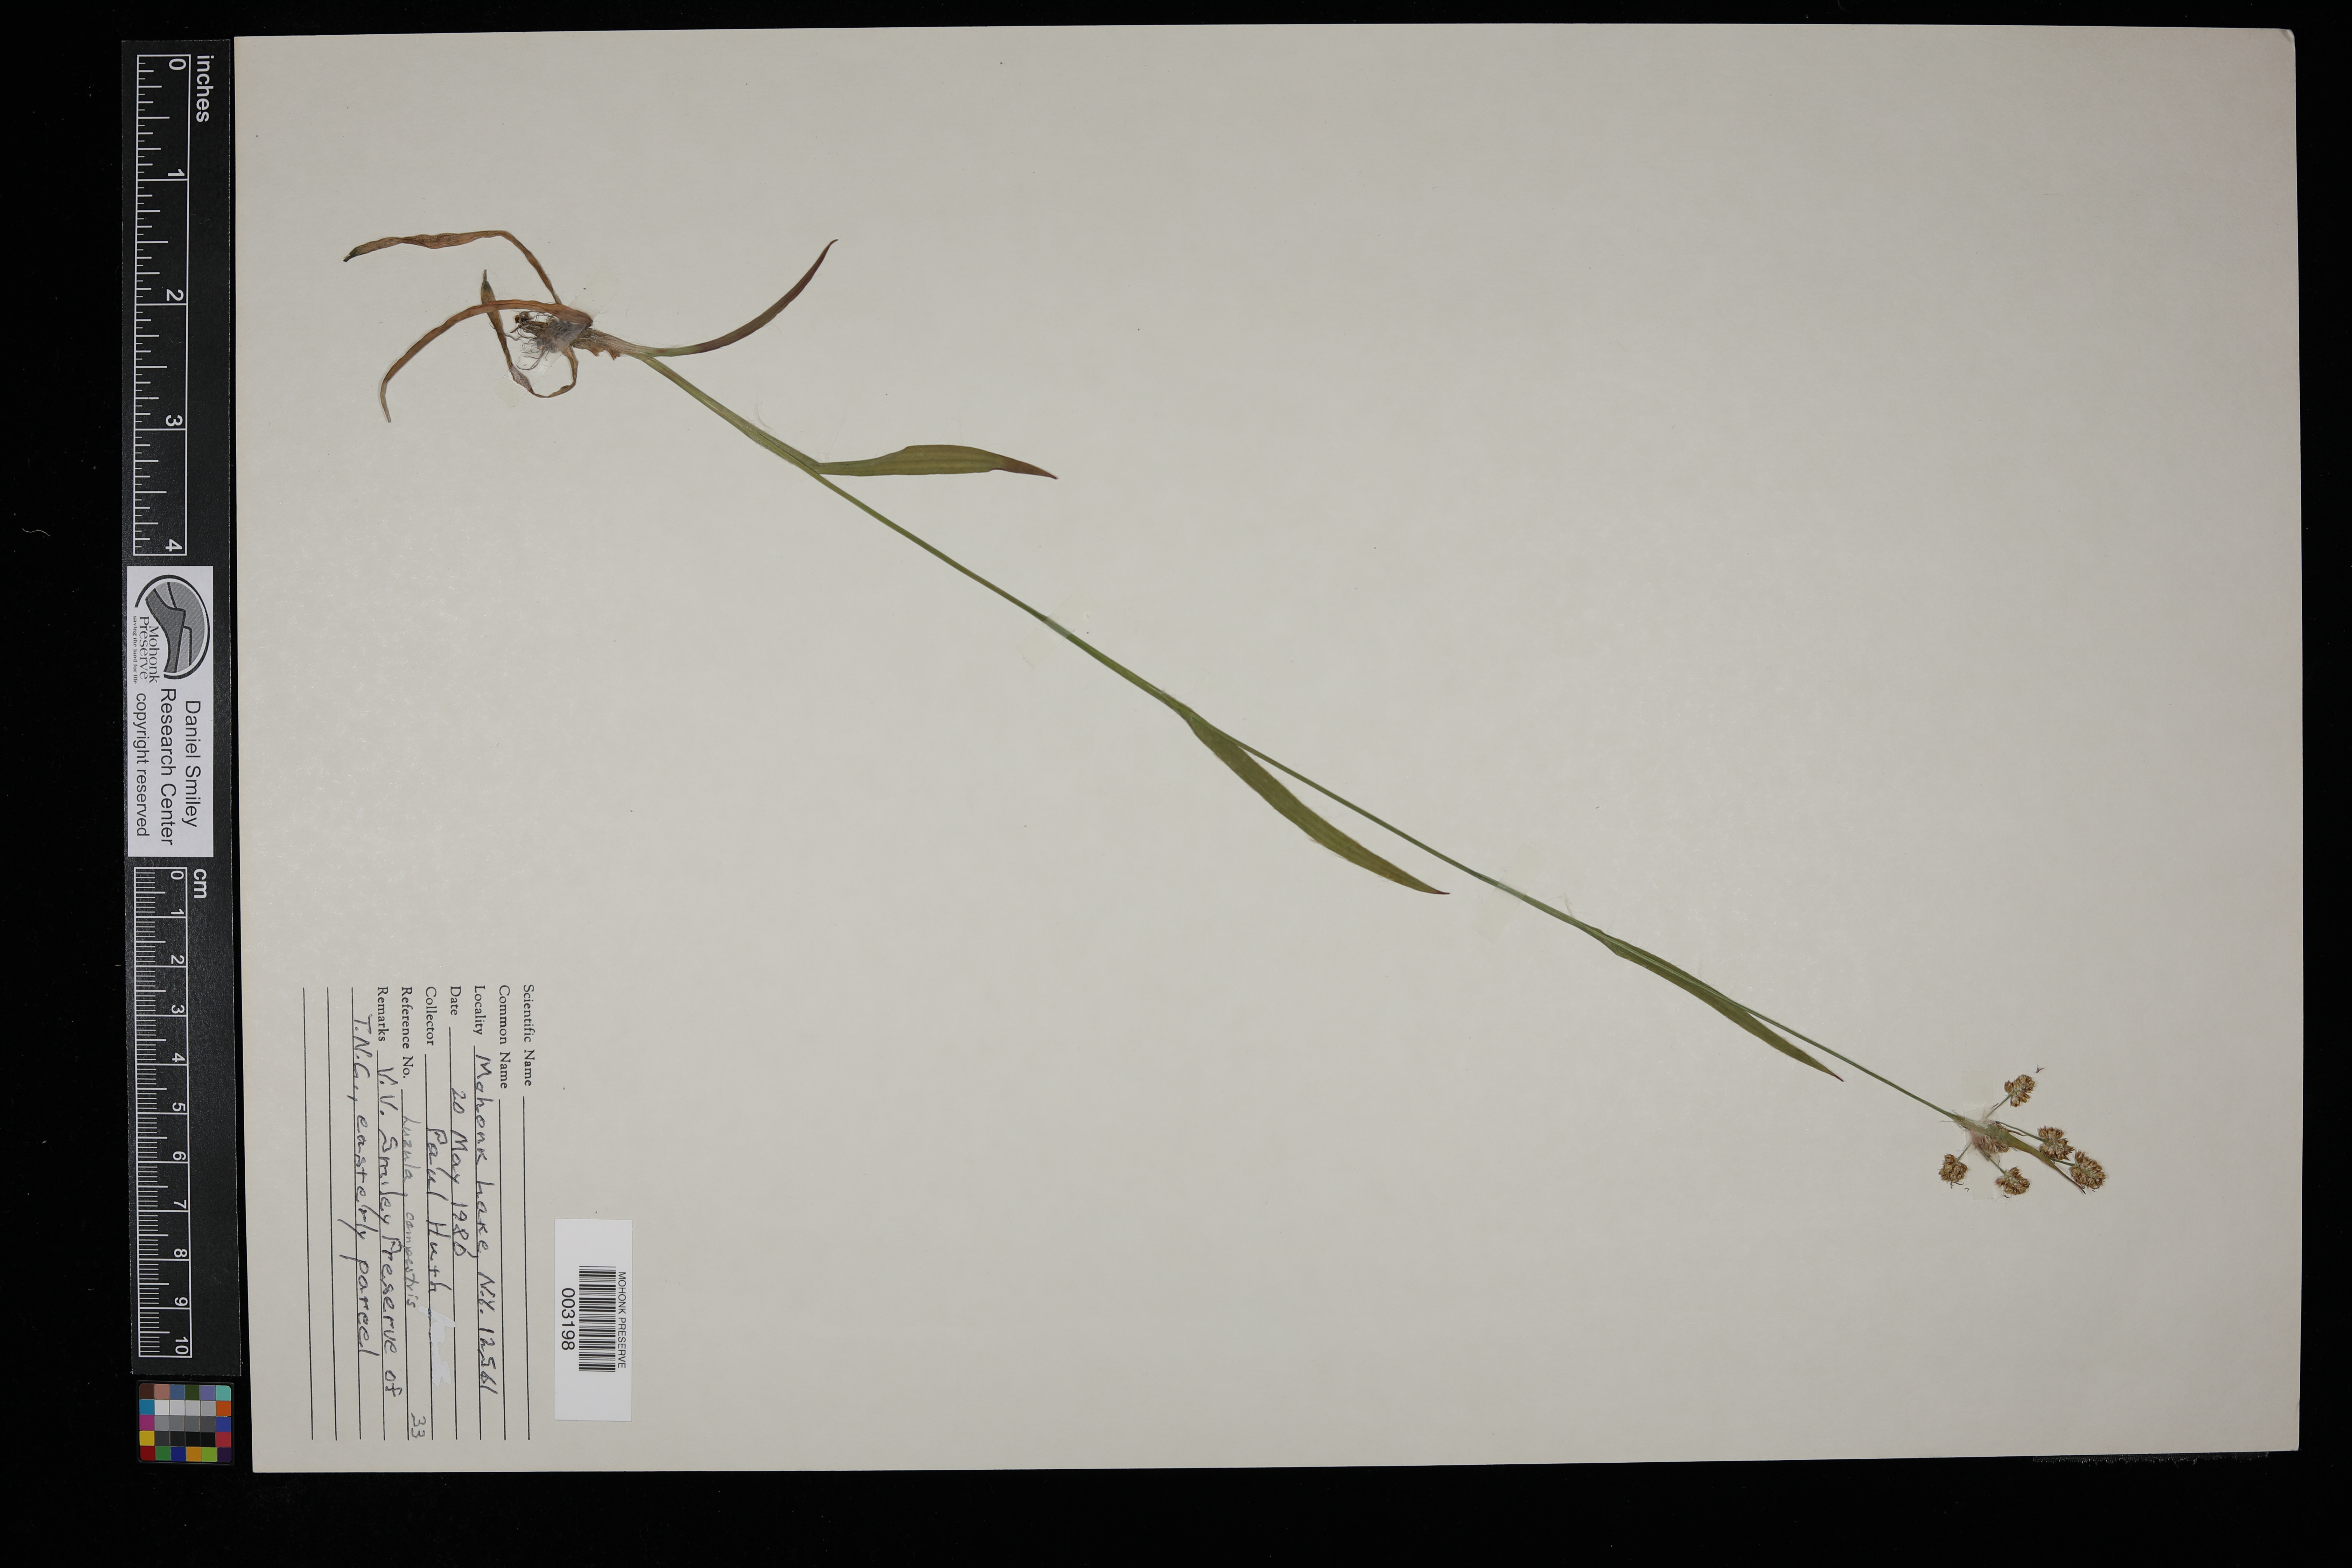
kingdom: Plantae
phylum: Tracheophyta
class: Liliopsida
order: Poales
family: Juncaceae
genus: Luzula
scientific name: Luzula campestris
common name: Field wood-rush
